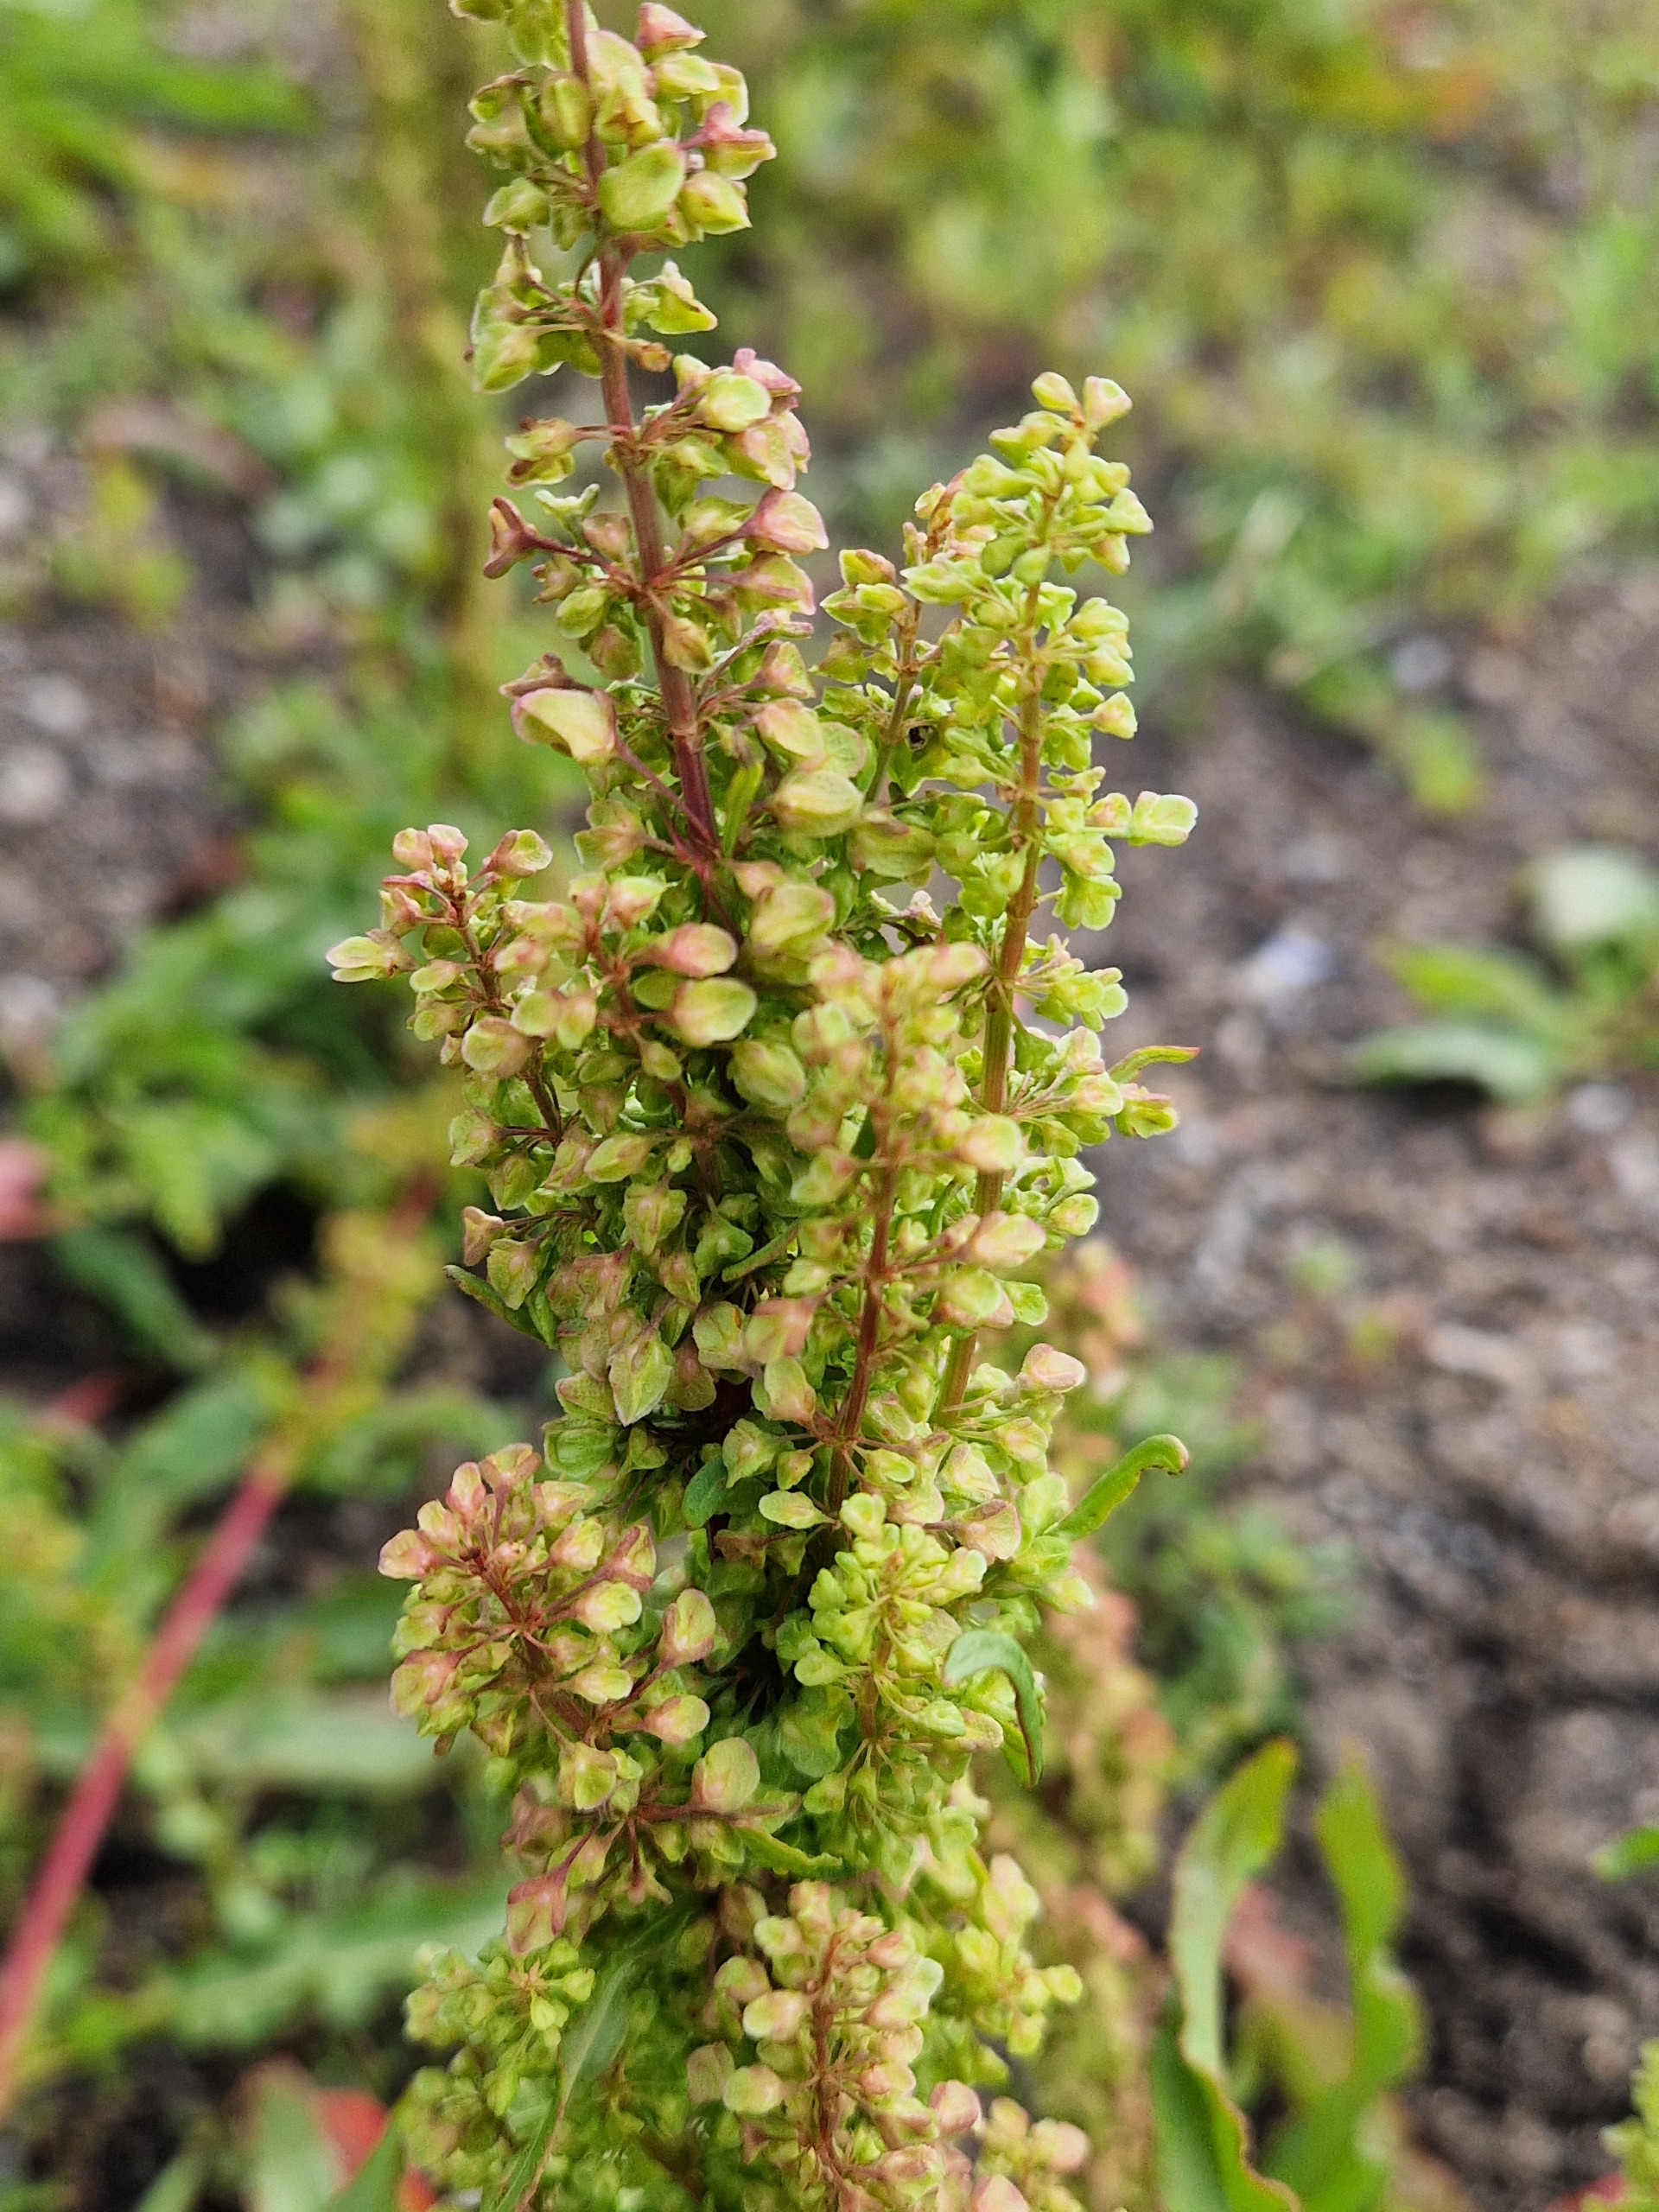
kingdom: Plantae
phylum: Tracheophyta
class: Magnoliopsida
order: Caryophyllales
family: Polygonaceae
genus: Rumex
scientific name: Rumex crispus
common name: Kruset skræppe
